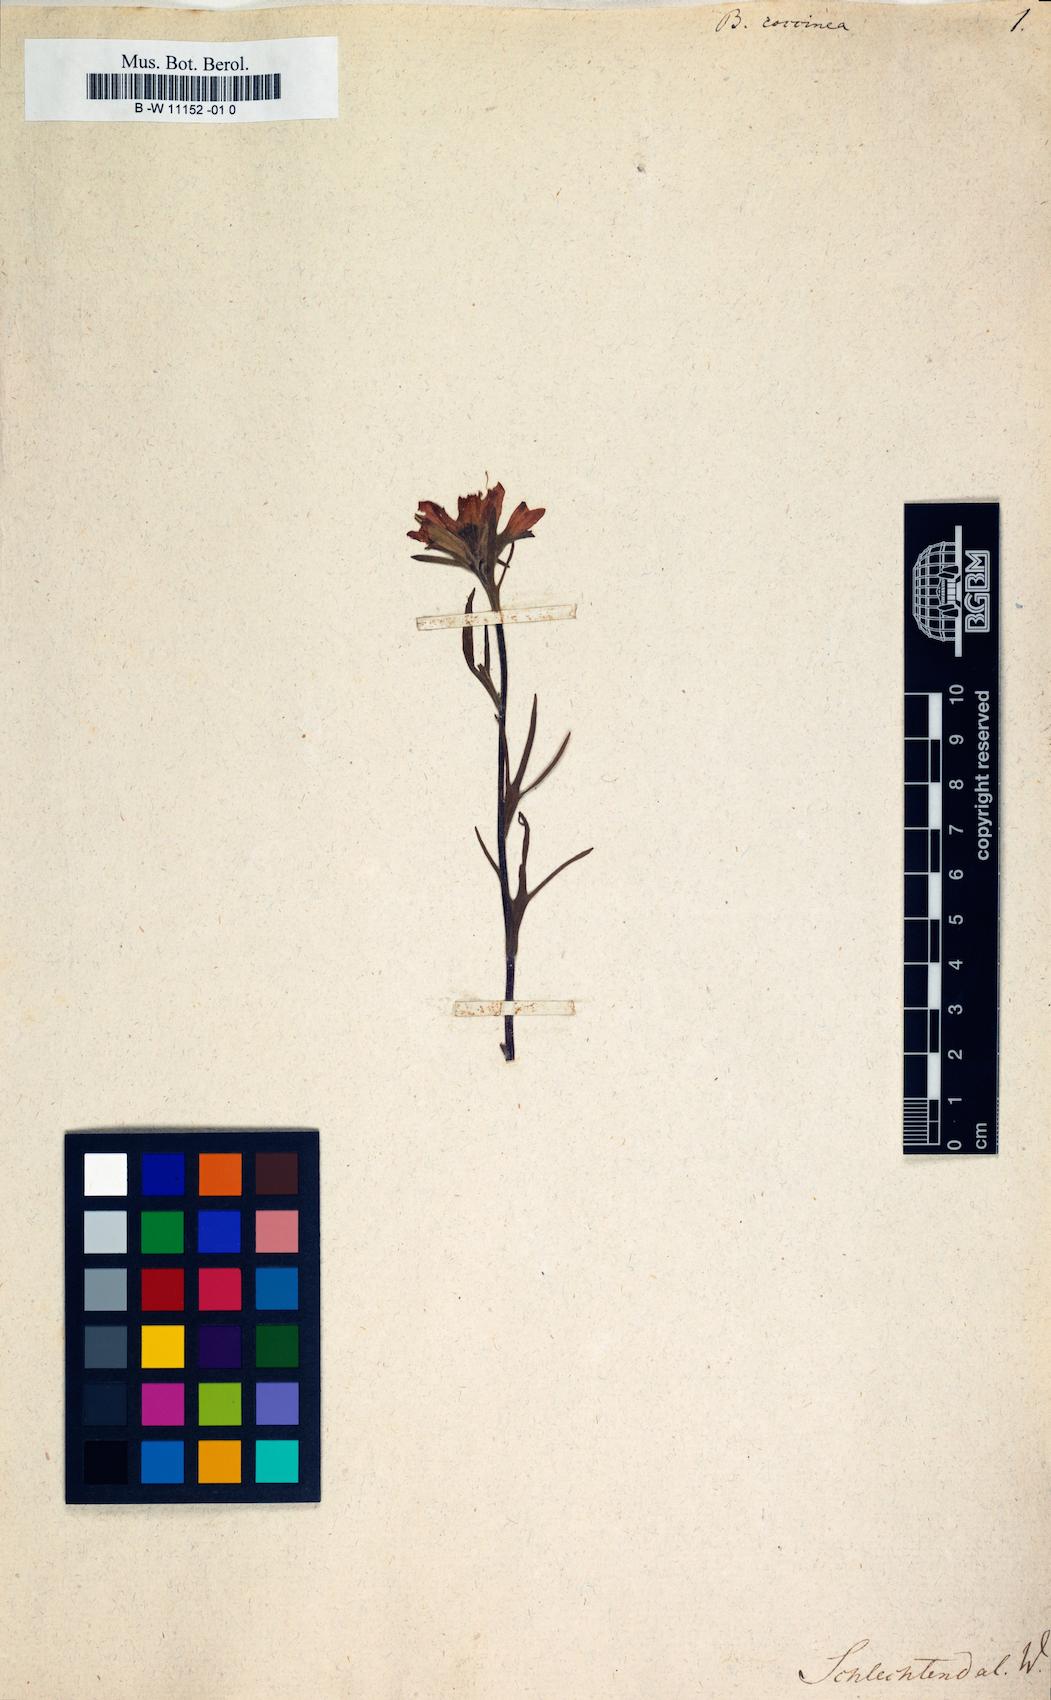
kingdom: Plantae
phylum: Tracheophyta
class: Magnoliopsida
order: Lamiales
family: Orobanchaceae
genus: Castilleja
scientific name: Castilleja coccinea
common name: Scarlet paintbrush
